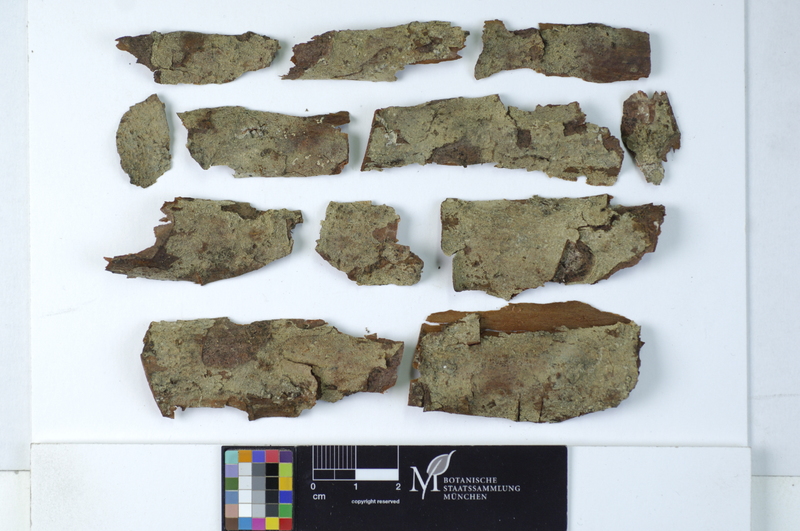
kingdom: Plantae
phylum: Tracheophyta
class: Pinopsida
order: Pinales
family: Pinaceae
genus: Pinus
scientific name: Pinus
